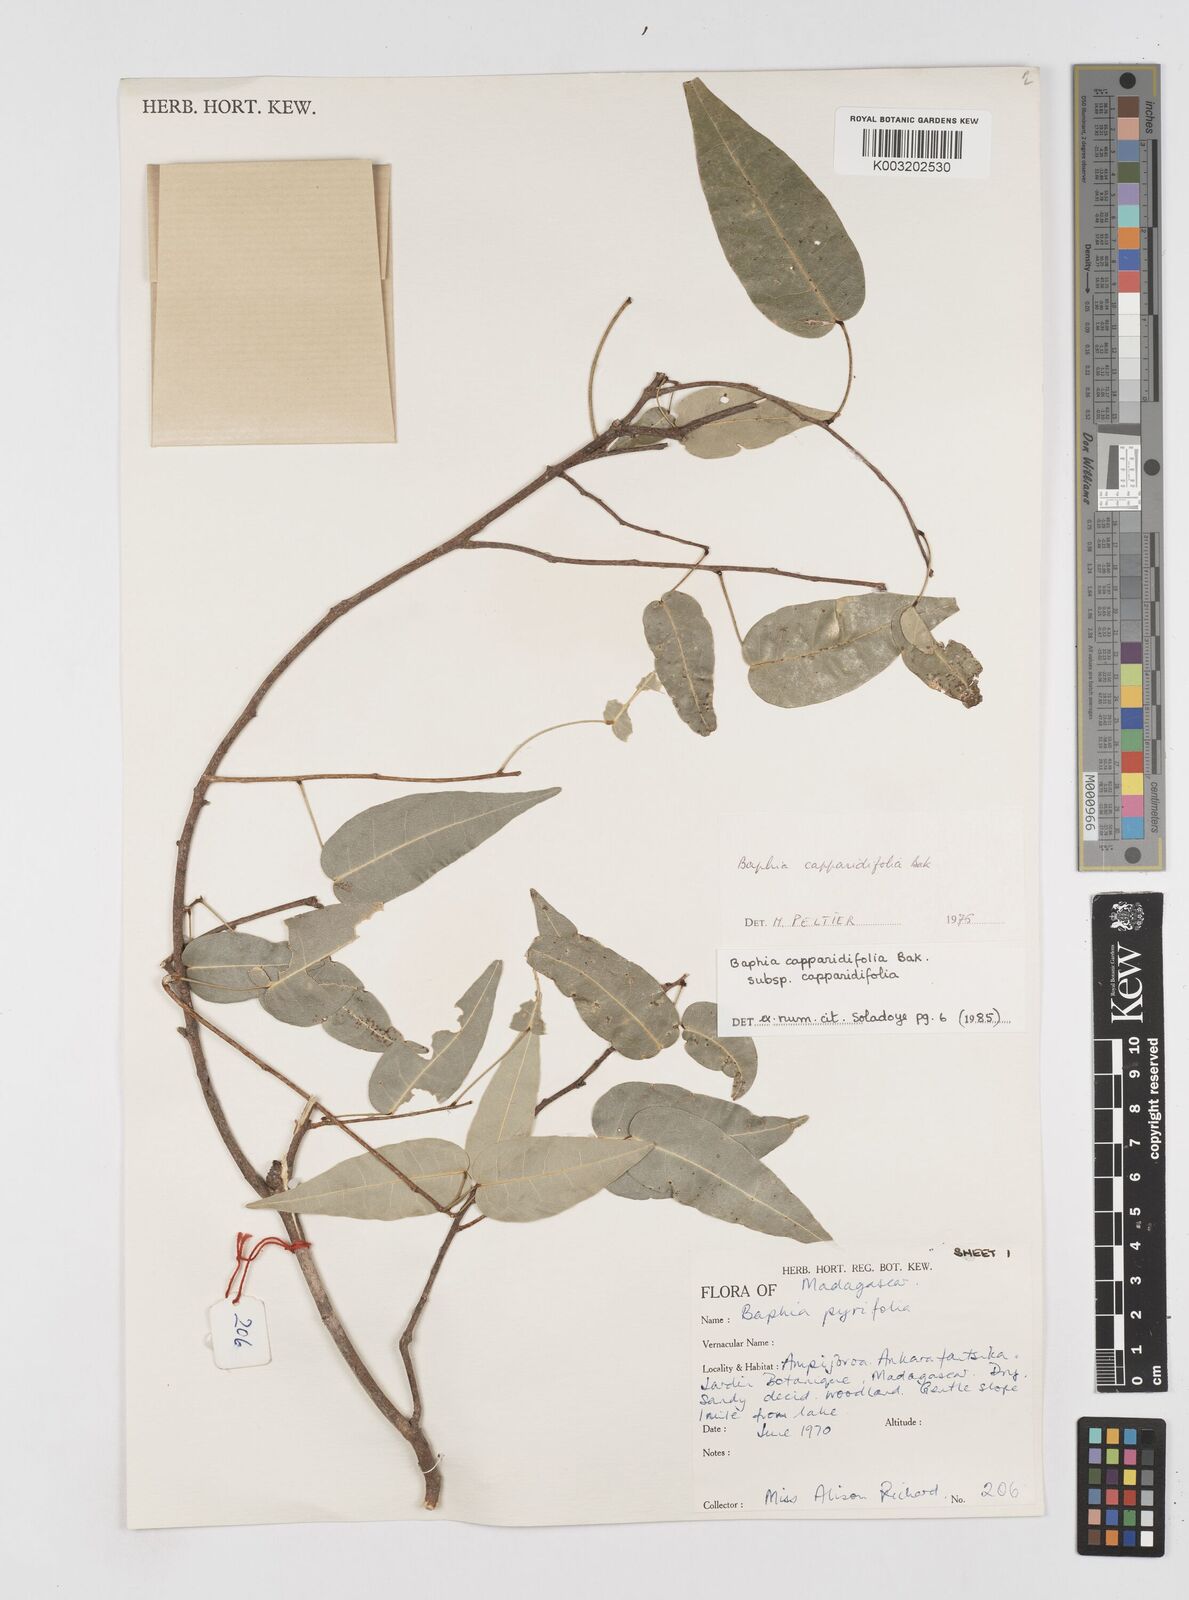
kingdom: Plantae
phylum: Tracheophyta
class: Magnoliopsida
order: Fabales
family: Fabaceae
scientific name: Fabaceae
